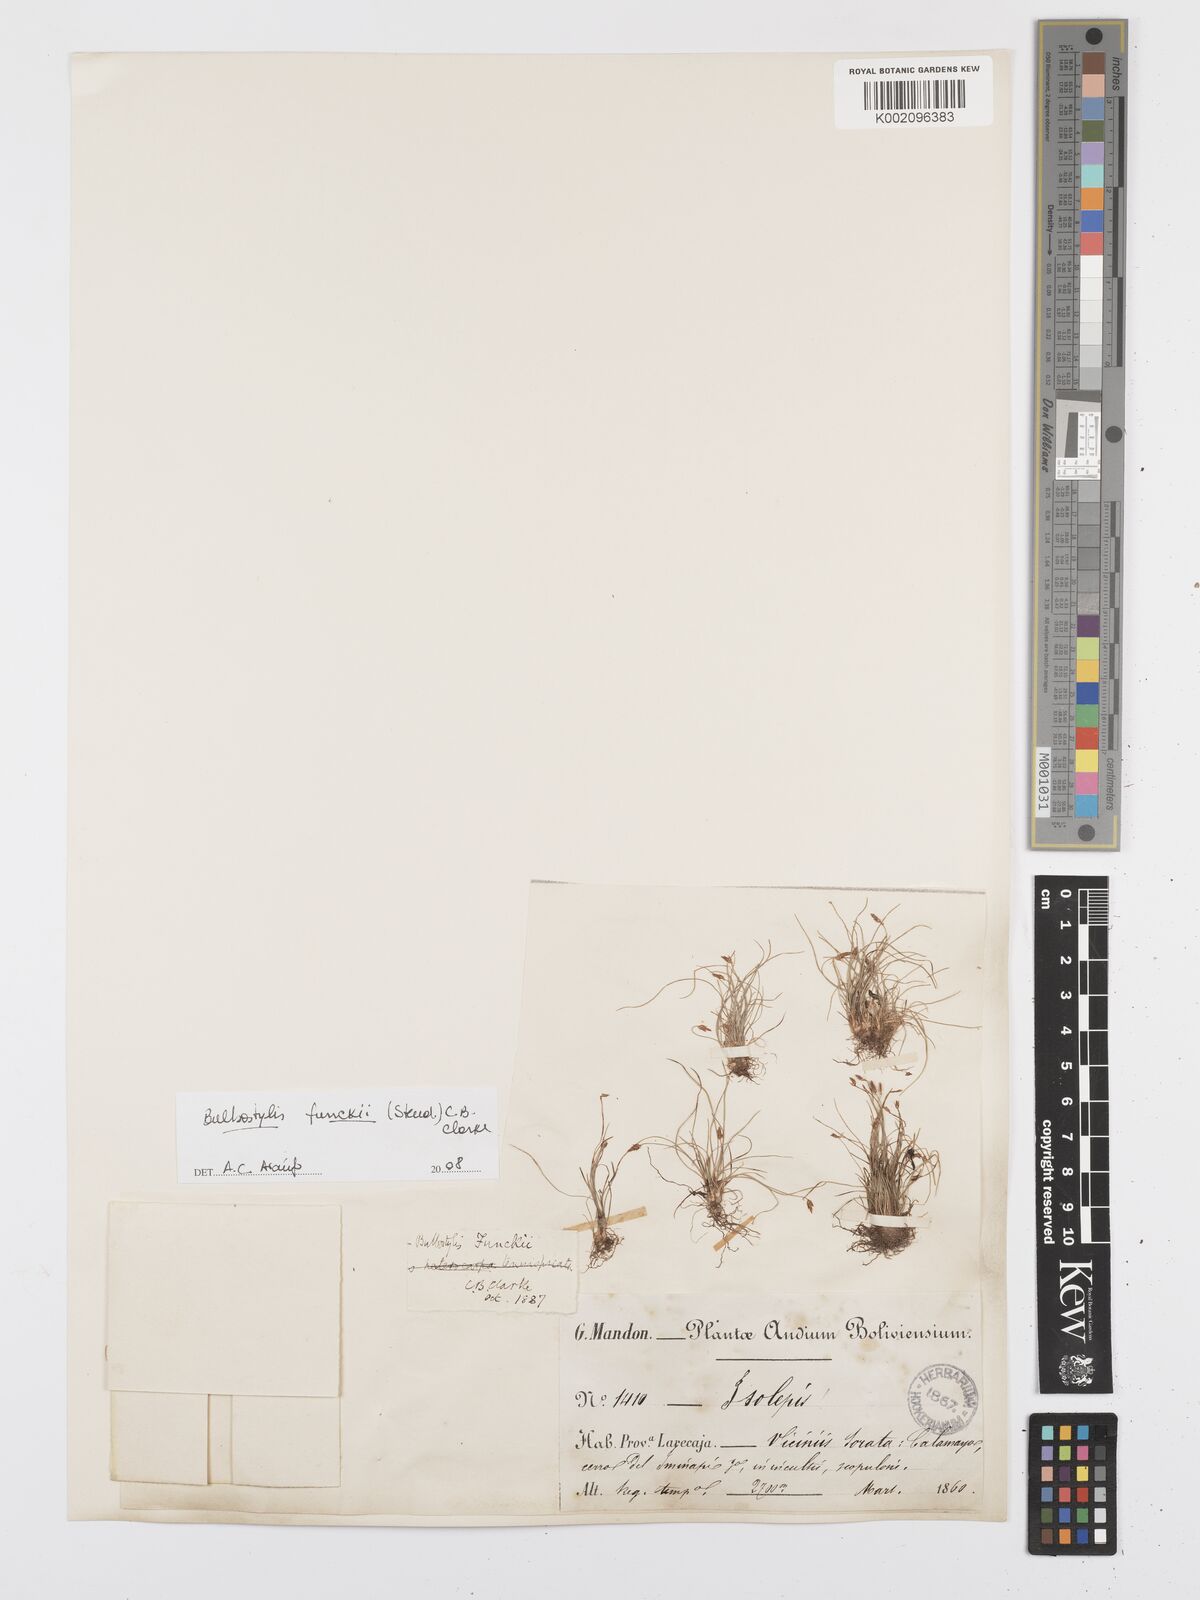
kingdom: Plantae
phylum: Tracheophyta
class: Liliopsida
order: Poales
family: Cyperaceae
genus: Bulbostylis
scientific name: Bulbostylis funckii
